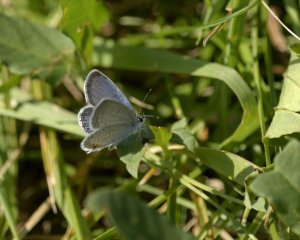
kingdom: Animalia
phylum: Arthropoda
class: Insecta
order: Lepidoptera
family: Lycaenidae
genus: Elkalyce
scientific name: Elkalyce comyntas
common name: Eastern Tailed-Blue
